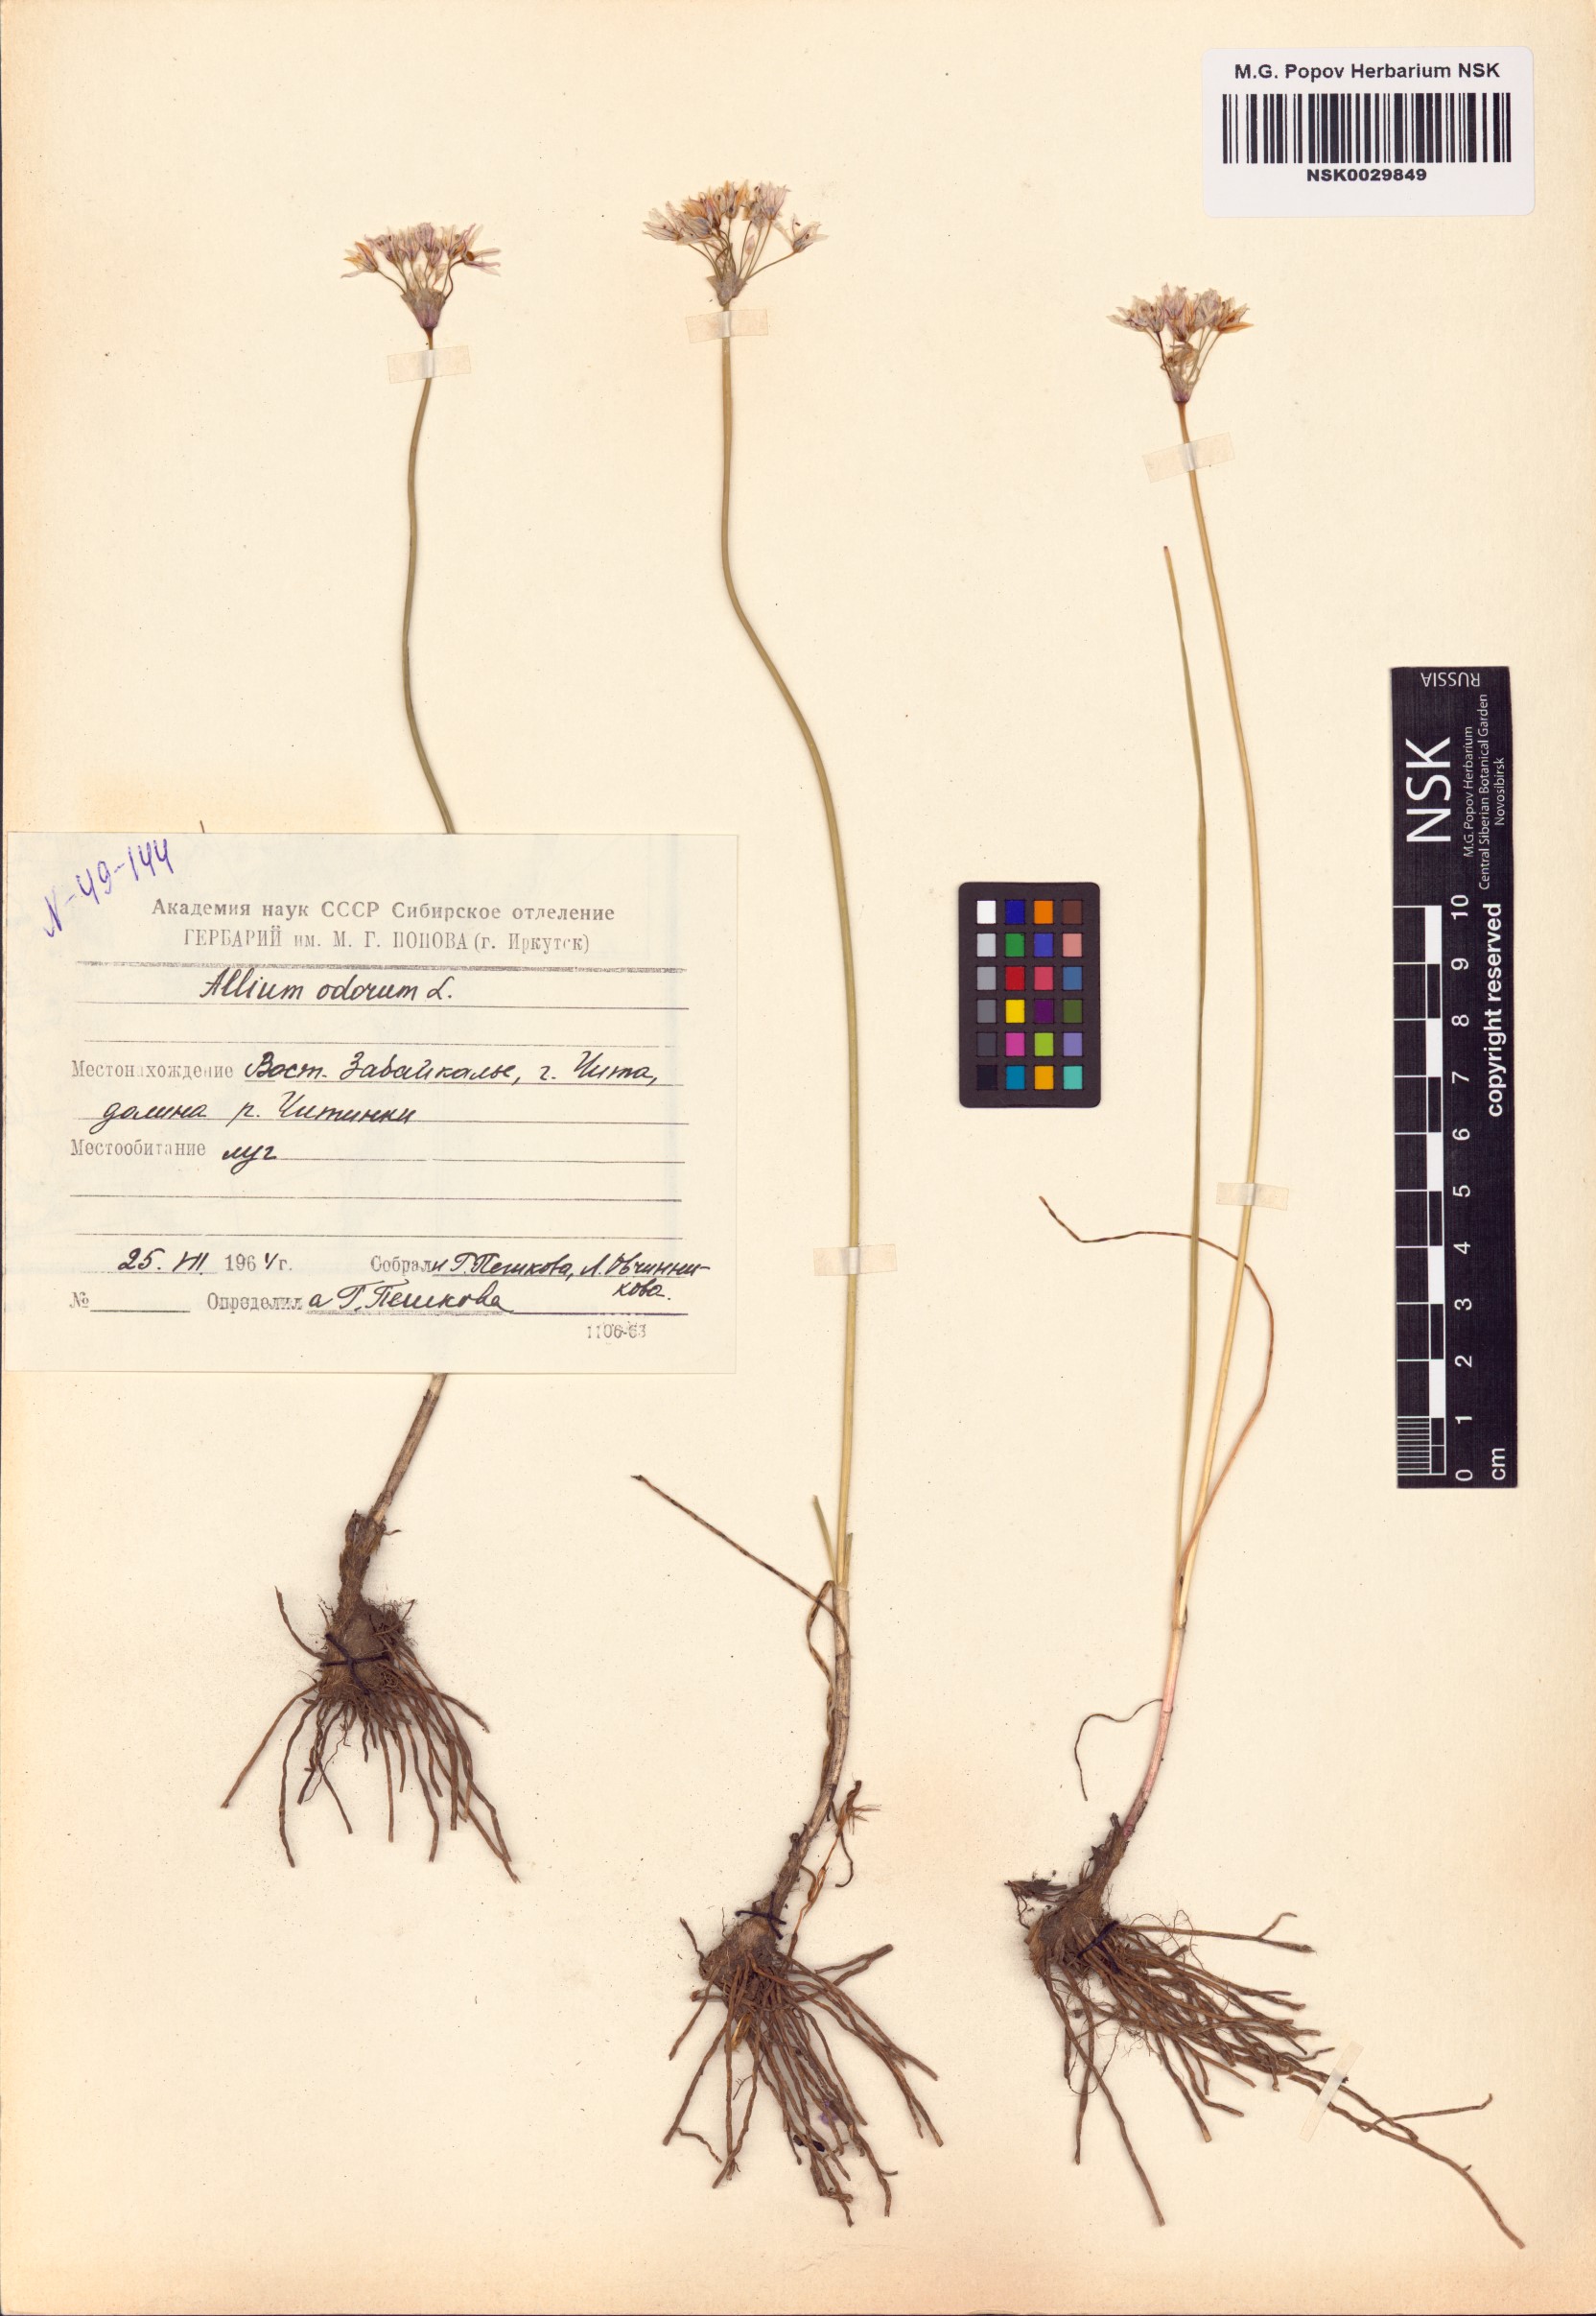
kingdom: Plantae
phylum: Tracheophyta
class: Liliopsida
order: Asparagales
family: Amaryllidaceae
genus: Allium
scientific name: Allium ramosum
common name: Fragrant garlic
